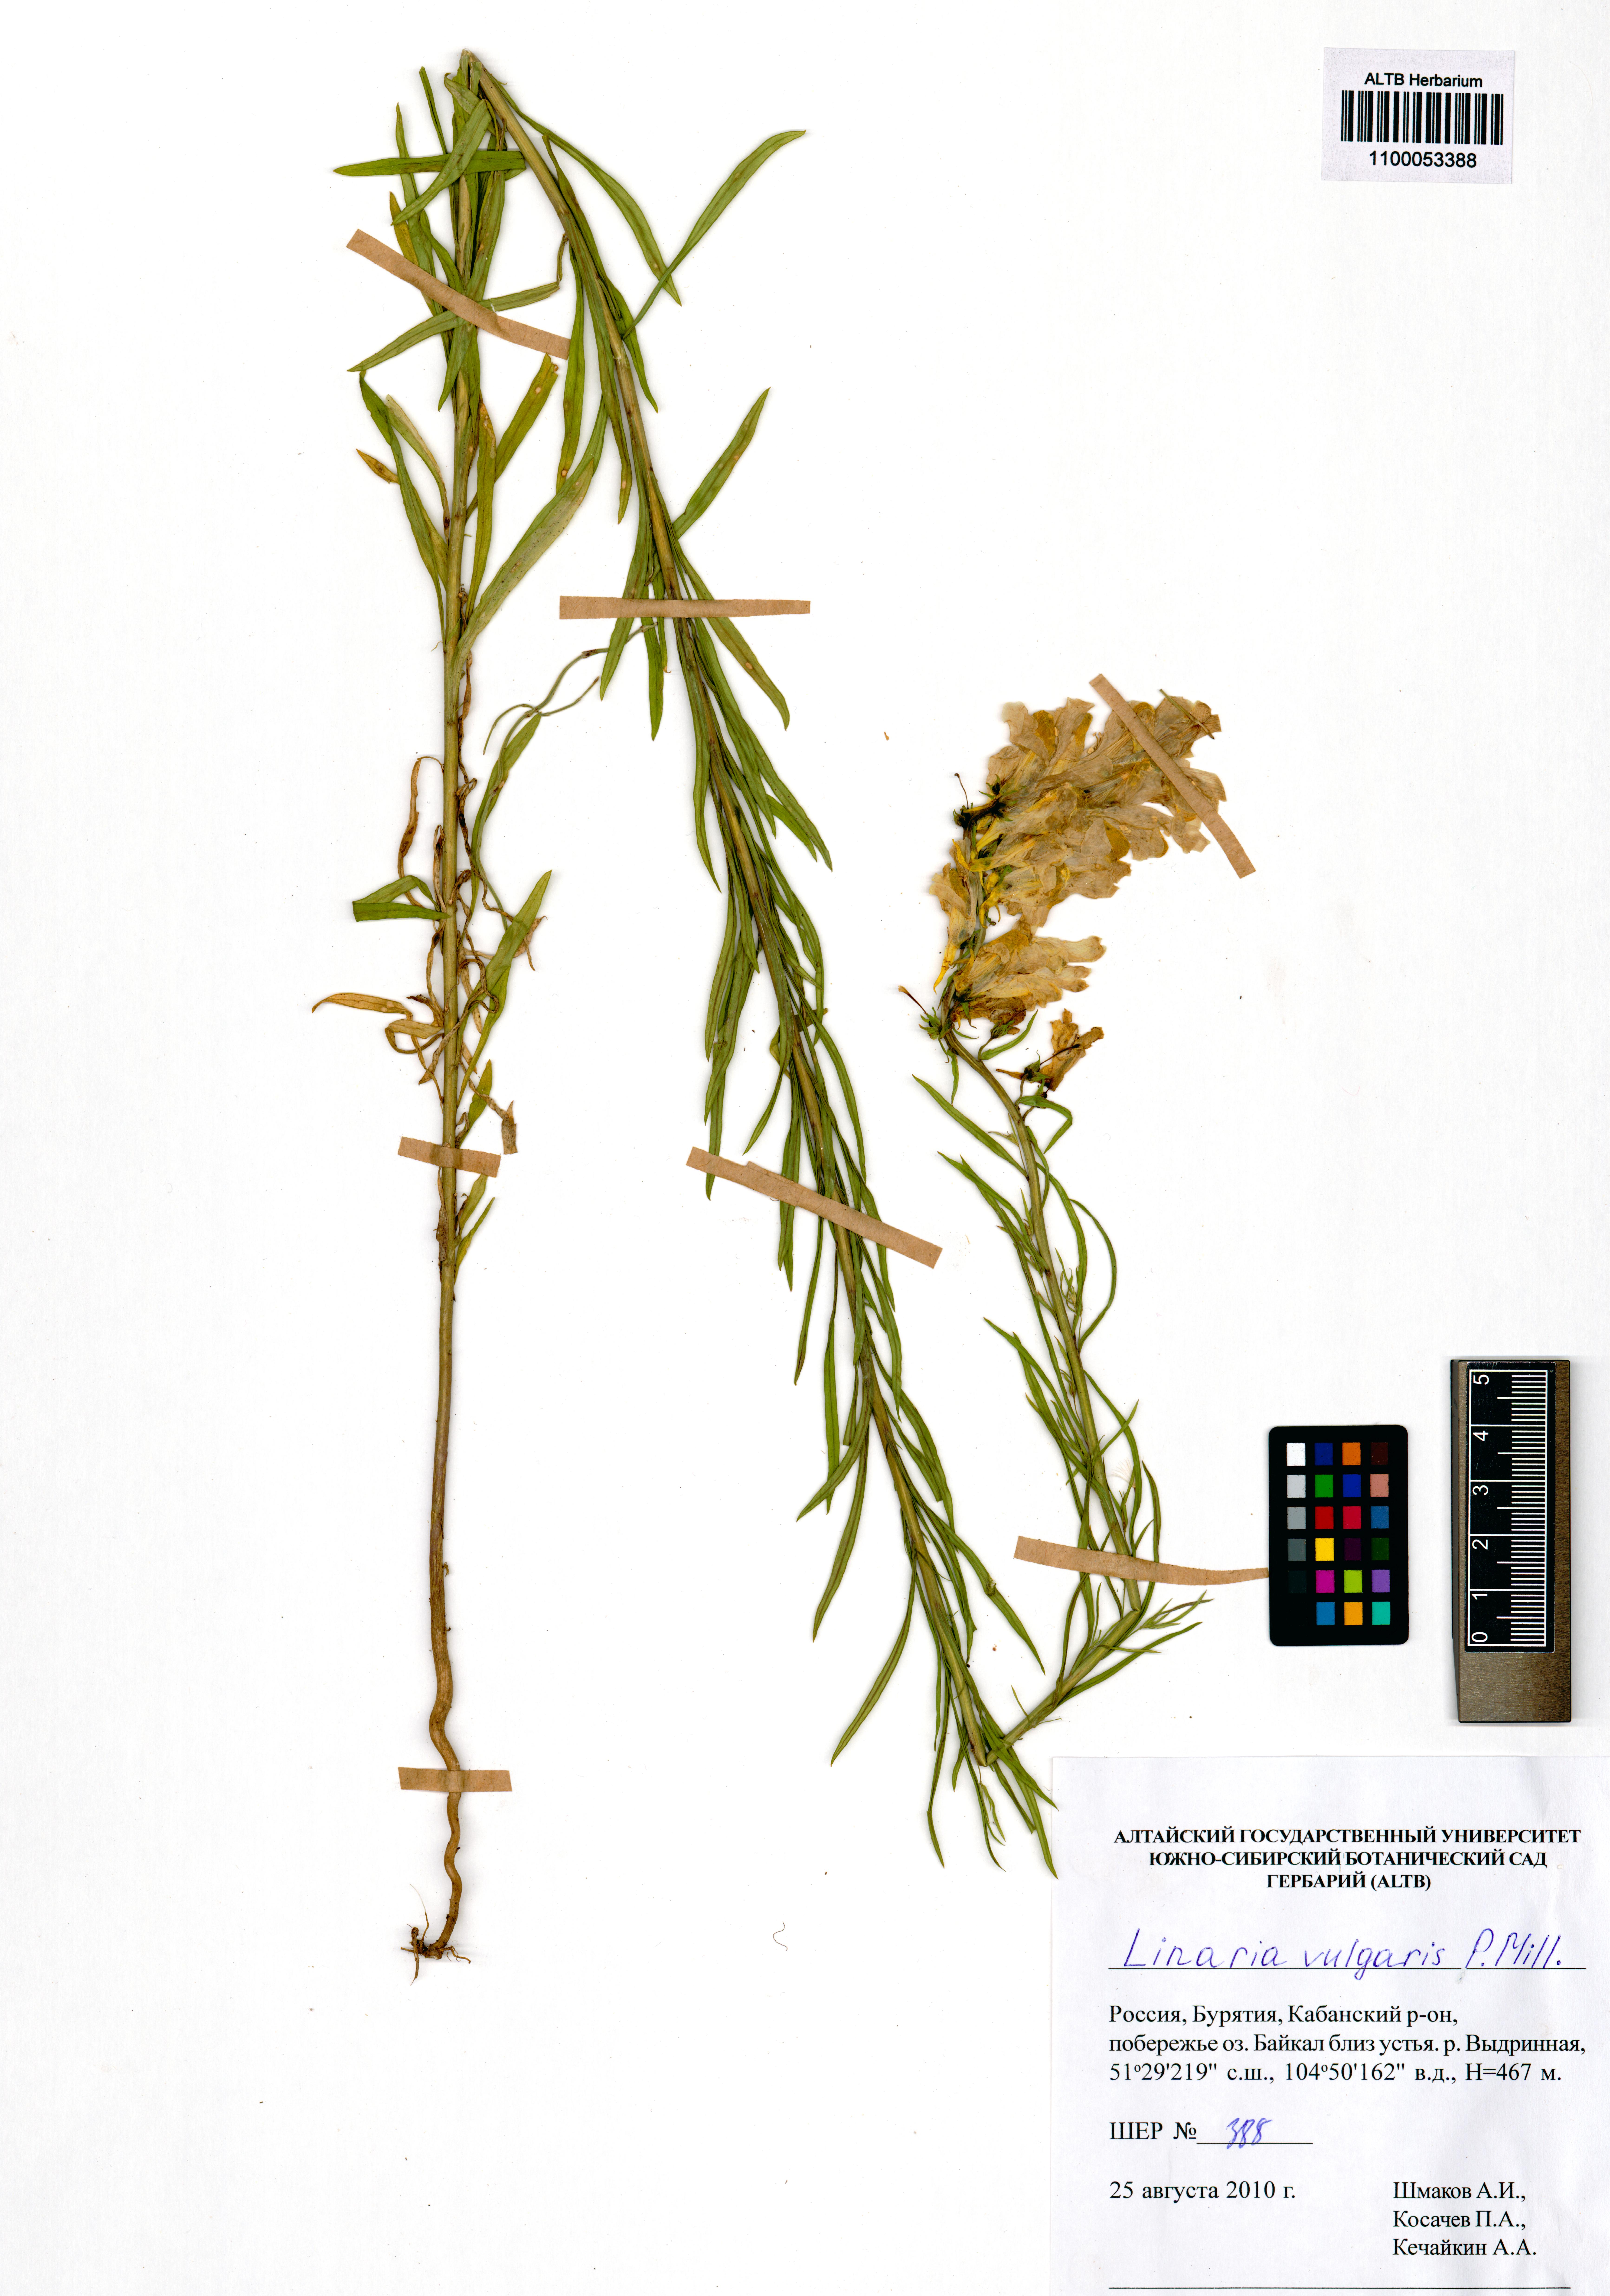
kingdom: Plantae
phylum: Tracheophyta
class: Magnoliopsida
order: Lamiales
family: Plantaginaceae
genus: Linaria
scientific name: Linaria vulgaris
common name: Butter and eggs
